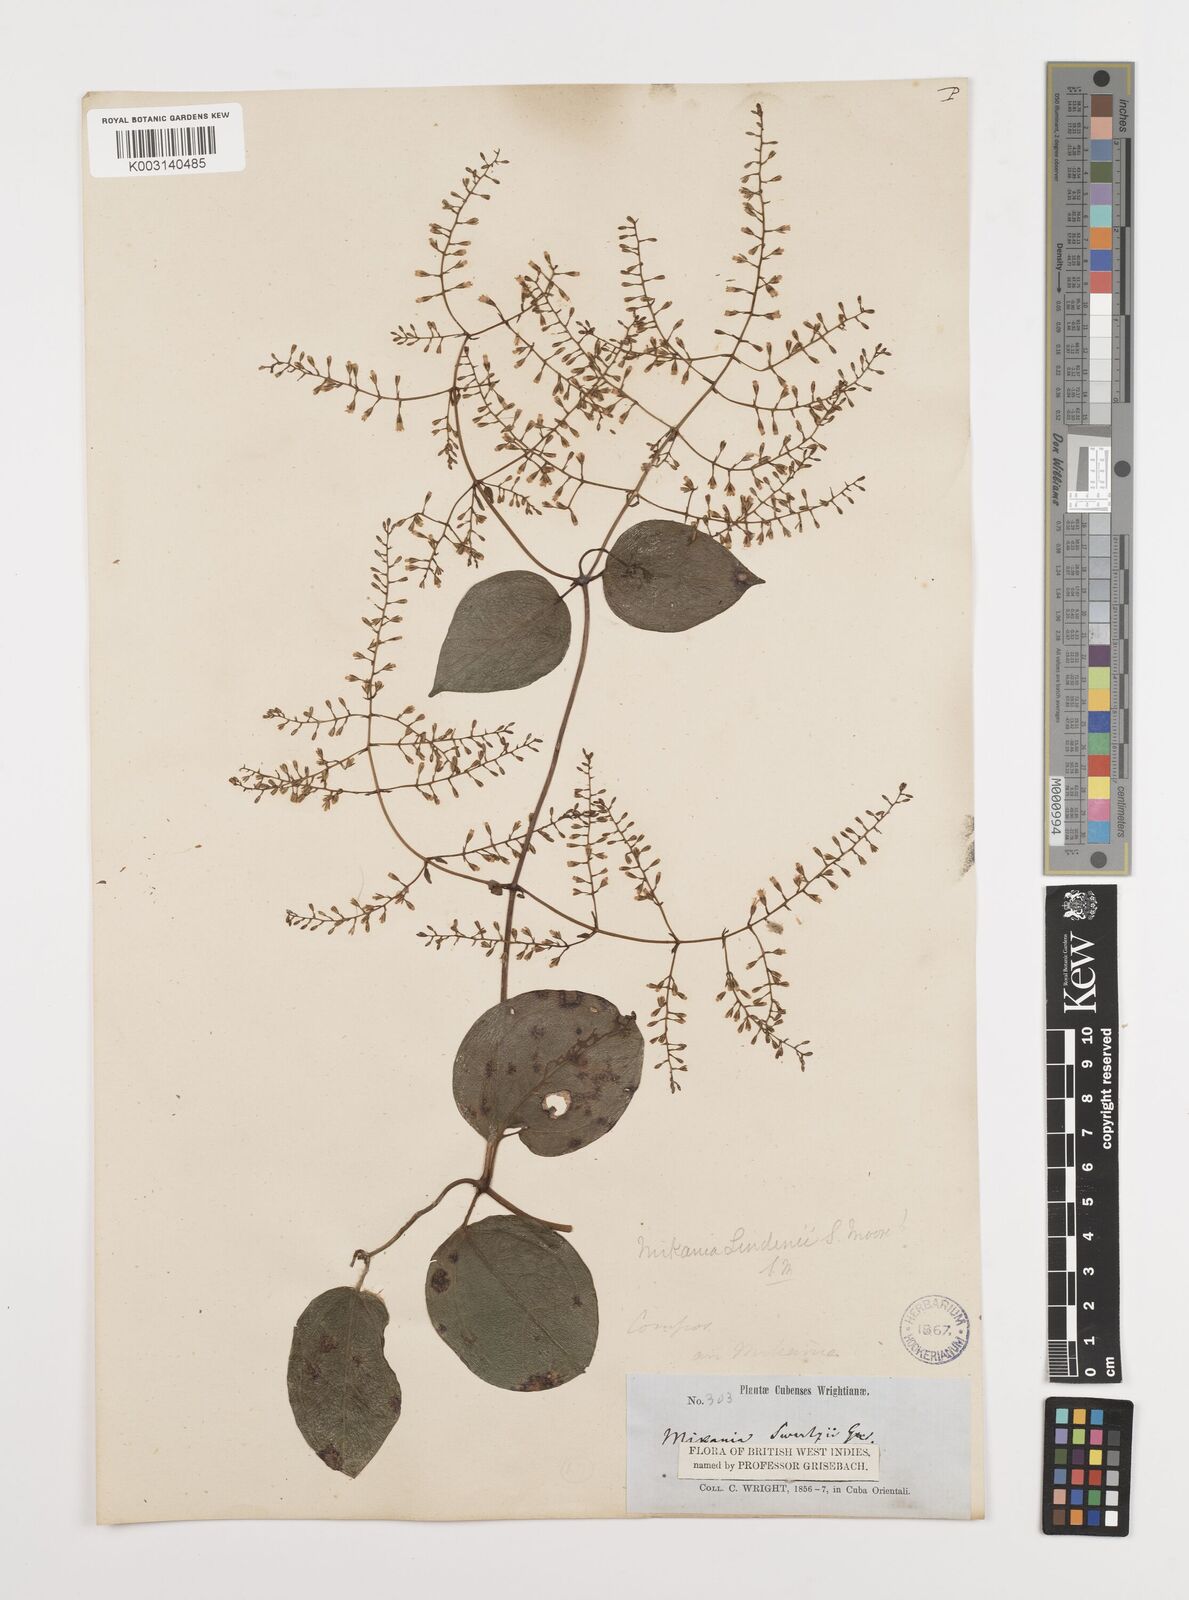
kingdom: Plantae
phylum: Tracheophyta
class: Magnoliopsida
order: Asterales
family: Asteraceae
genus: Mikania
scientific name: Mikania hioramii
